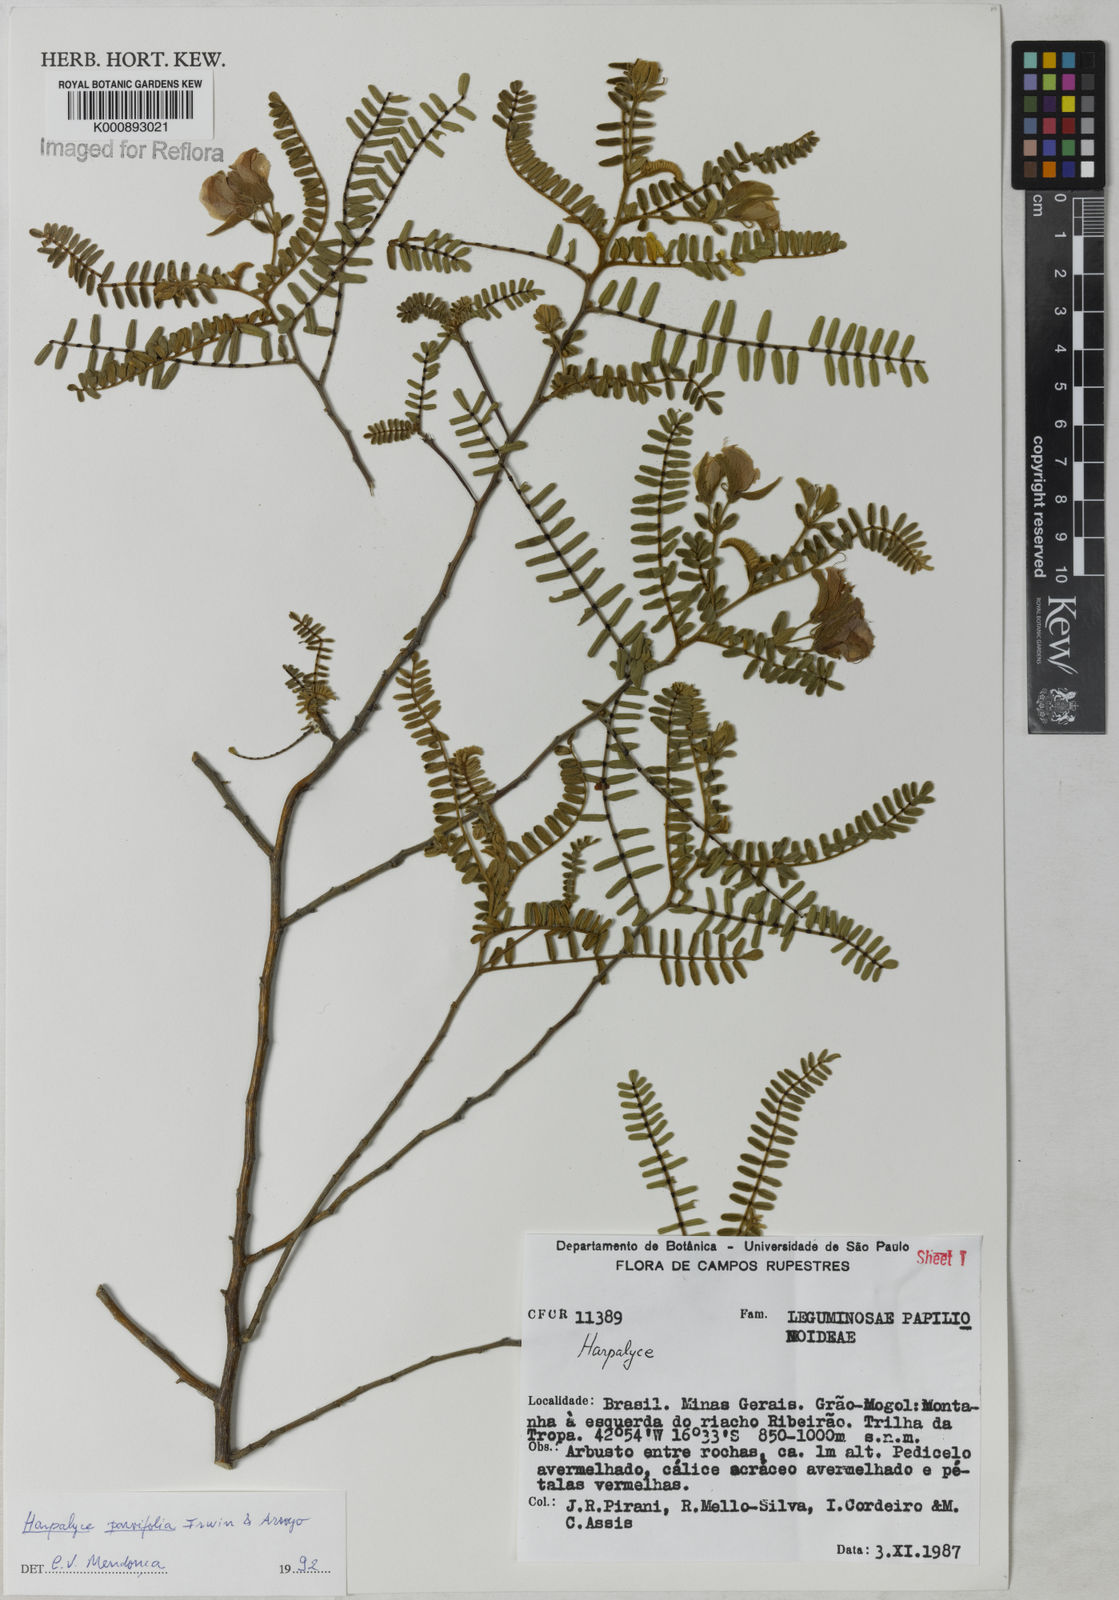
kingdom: Plantae
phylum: Tracheophyta
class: Magnoliopsida
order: Fabales
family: Fabaceae
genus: Harpalyce
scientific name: Harpalyce parvifolia
